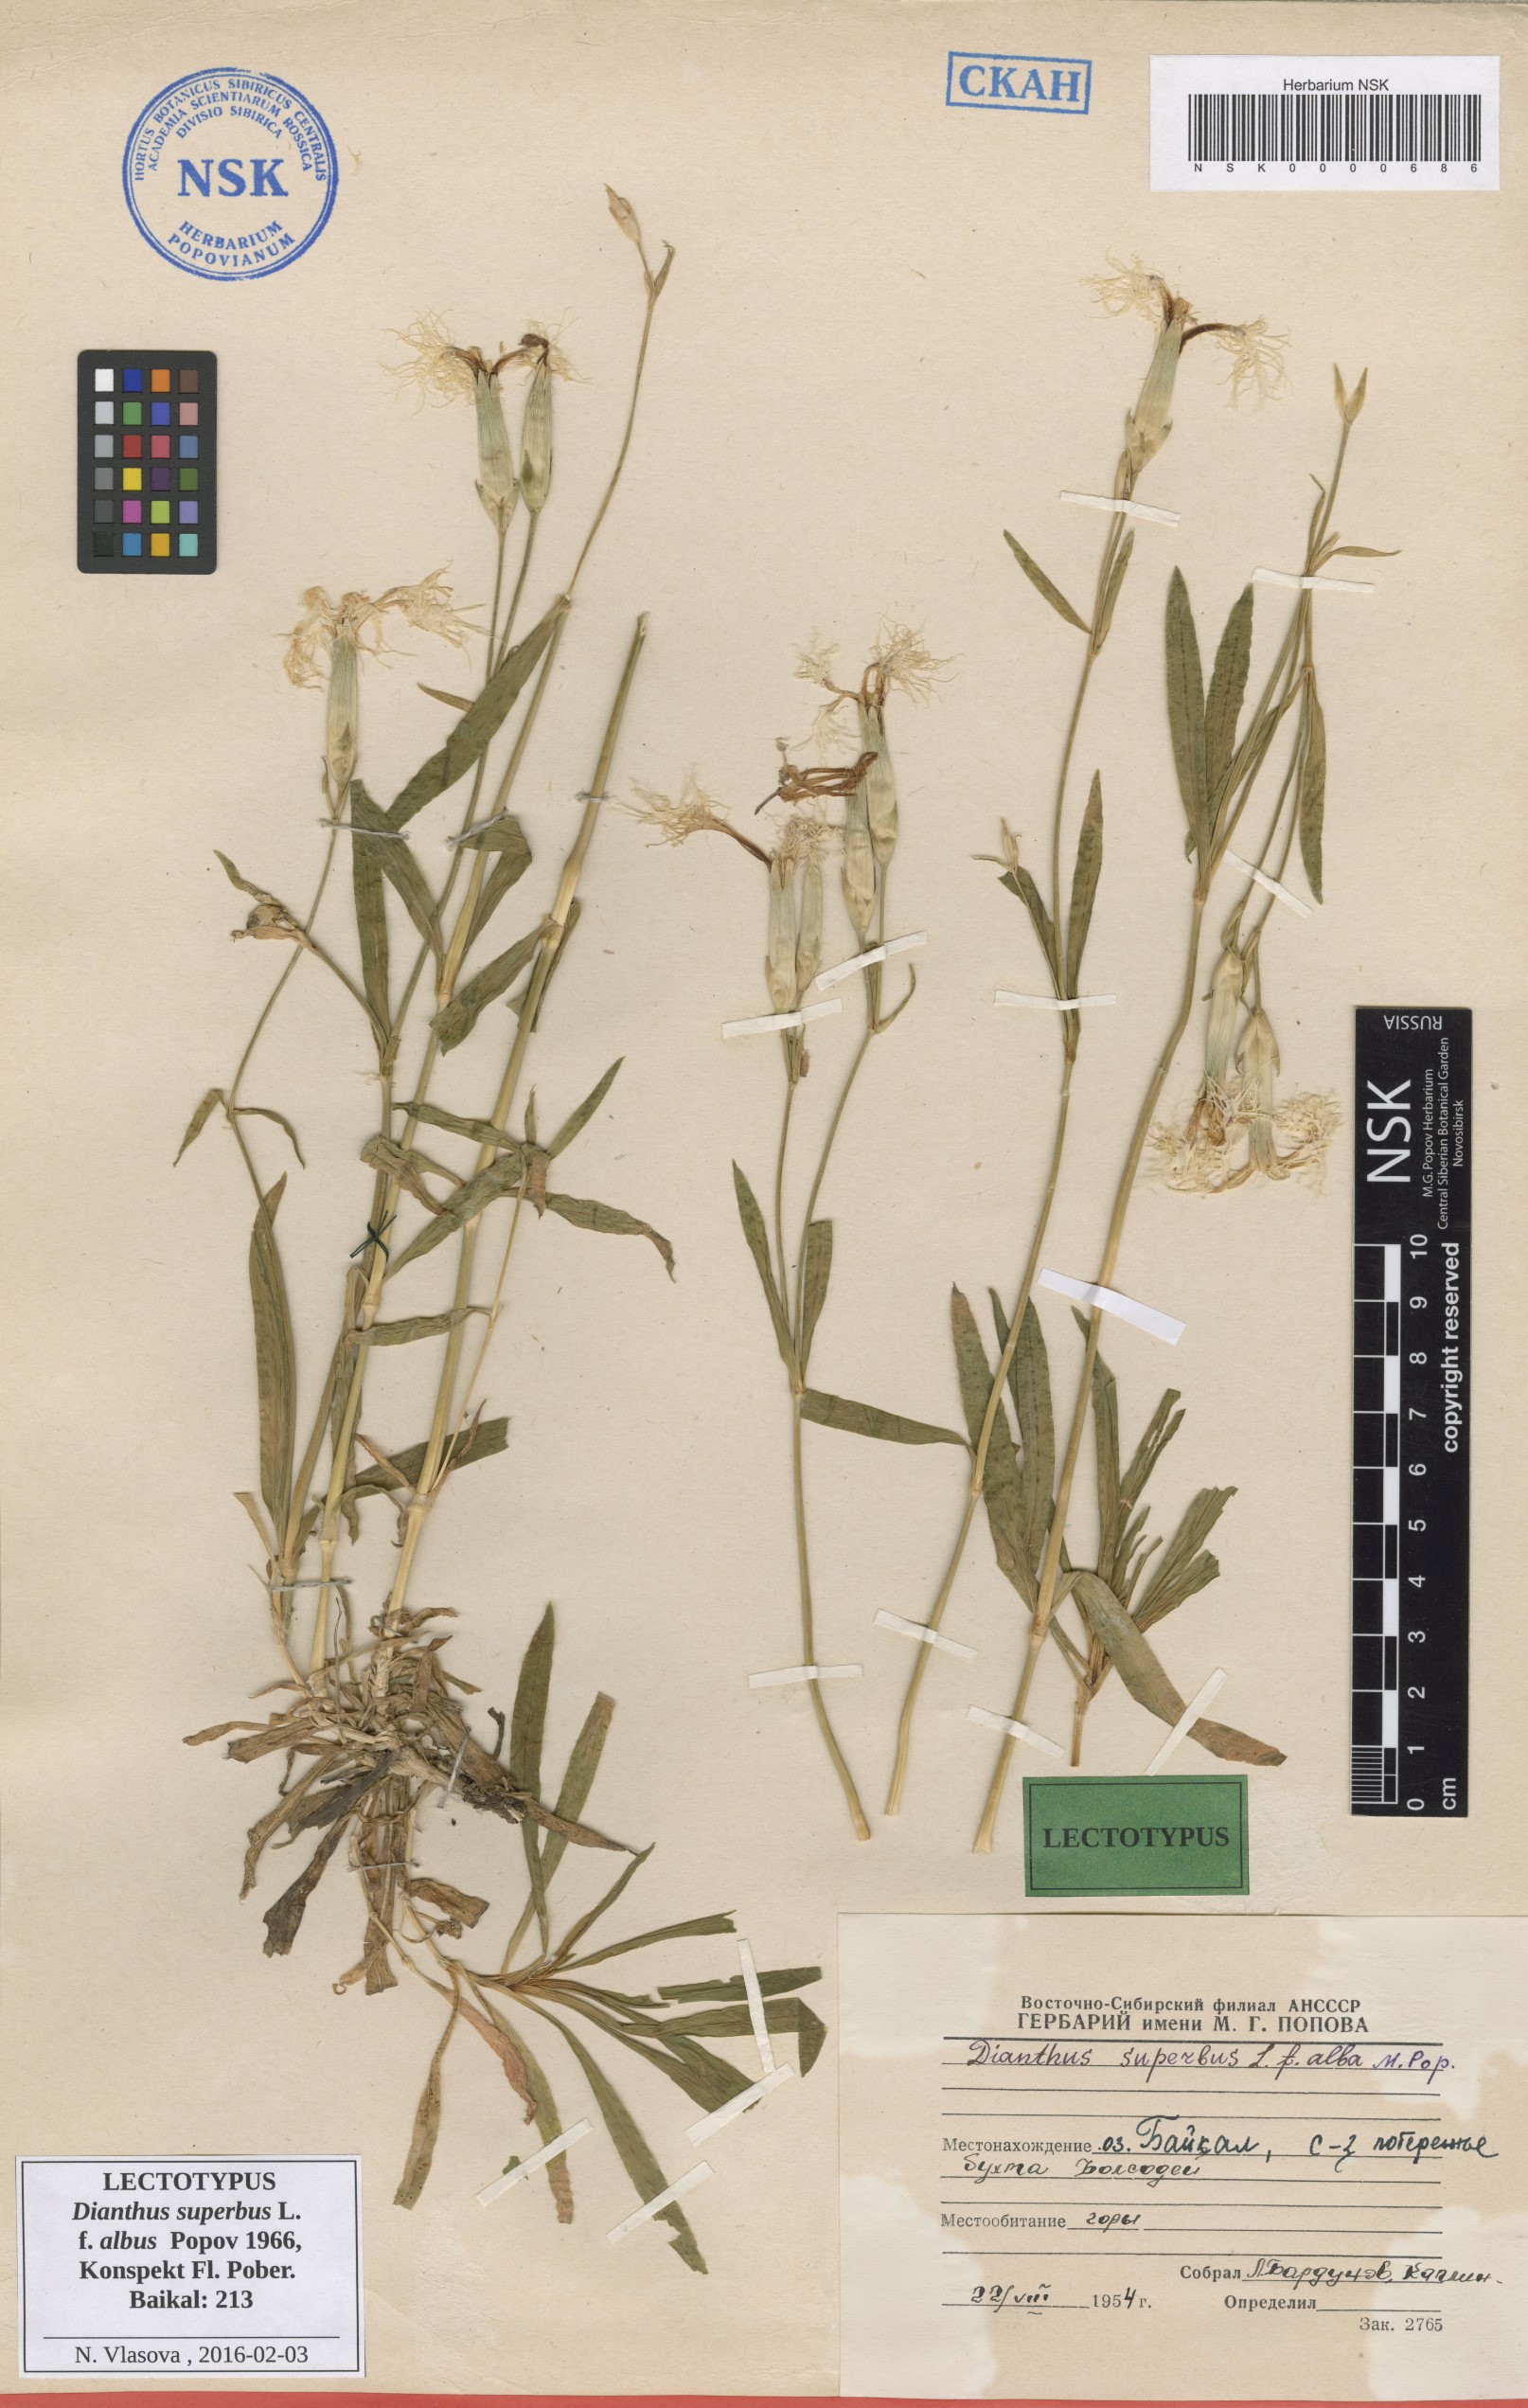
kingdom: Plantae
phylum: Tracheophyta
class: Magnoliopsida
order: Caryophyllales
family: Caryophyllaceae
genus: Dianthus
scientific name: Dianthus superbus
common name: Fringed pink
